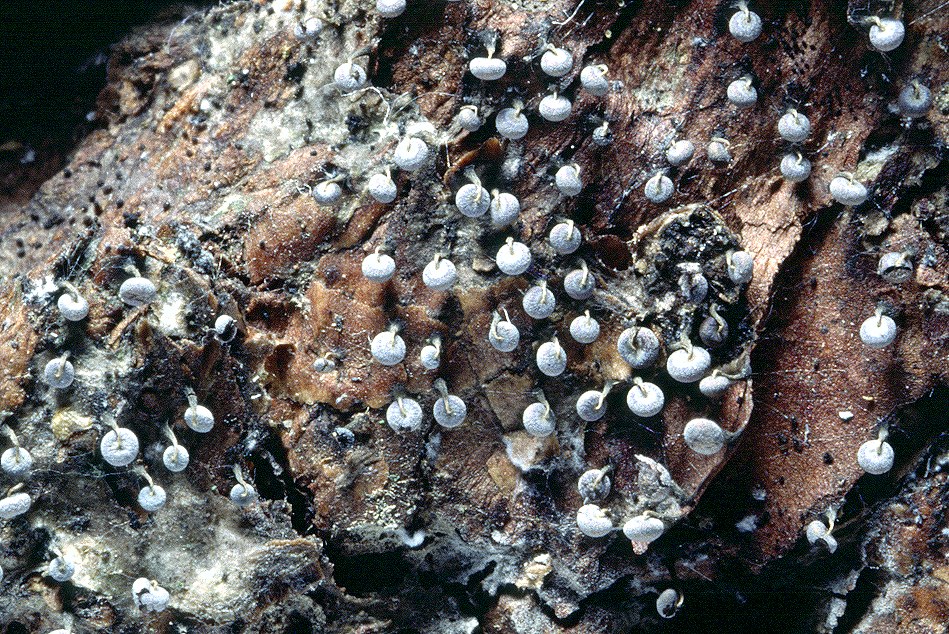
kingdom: Protozoa
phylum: Mycetozoa
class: Myxomycetes
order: Physarales
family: Physaraceae
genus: Physarum
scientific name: Physarum album
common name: nikkende støvknop
